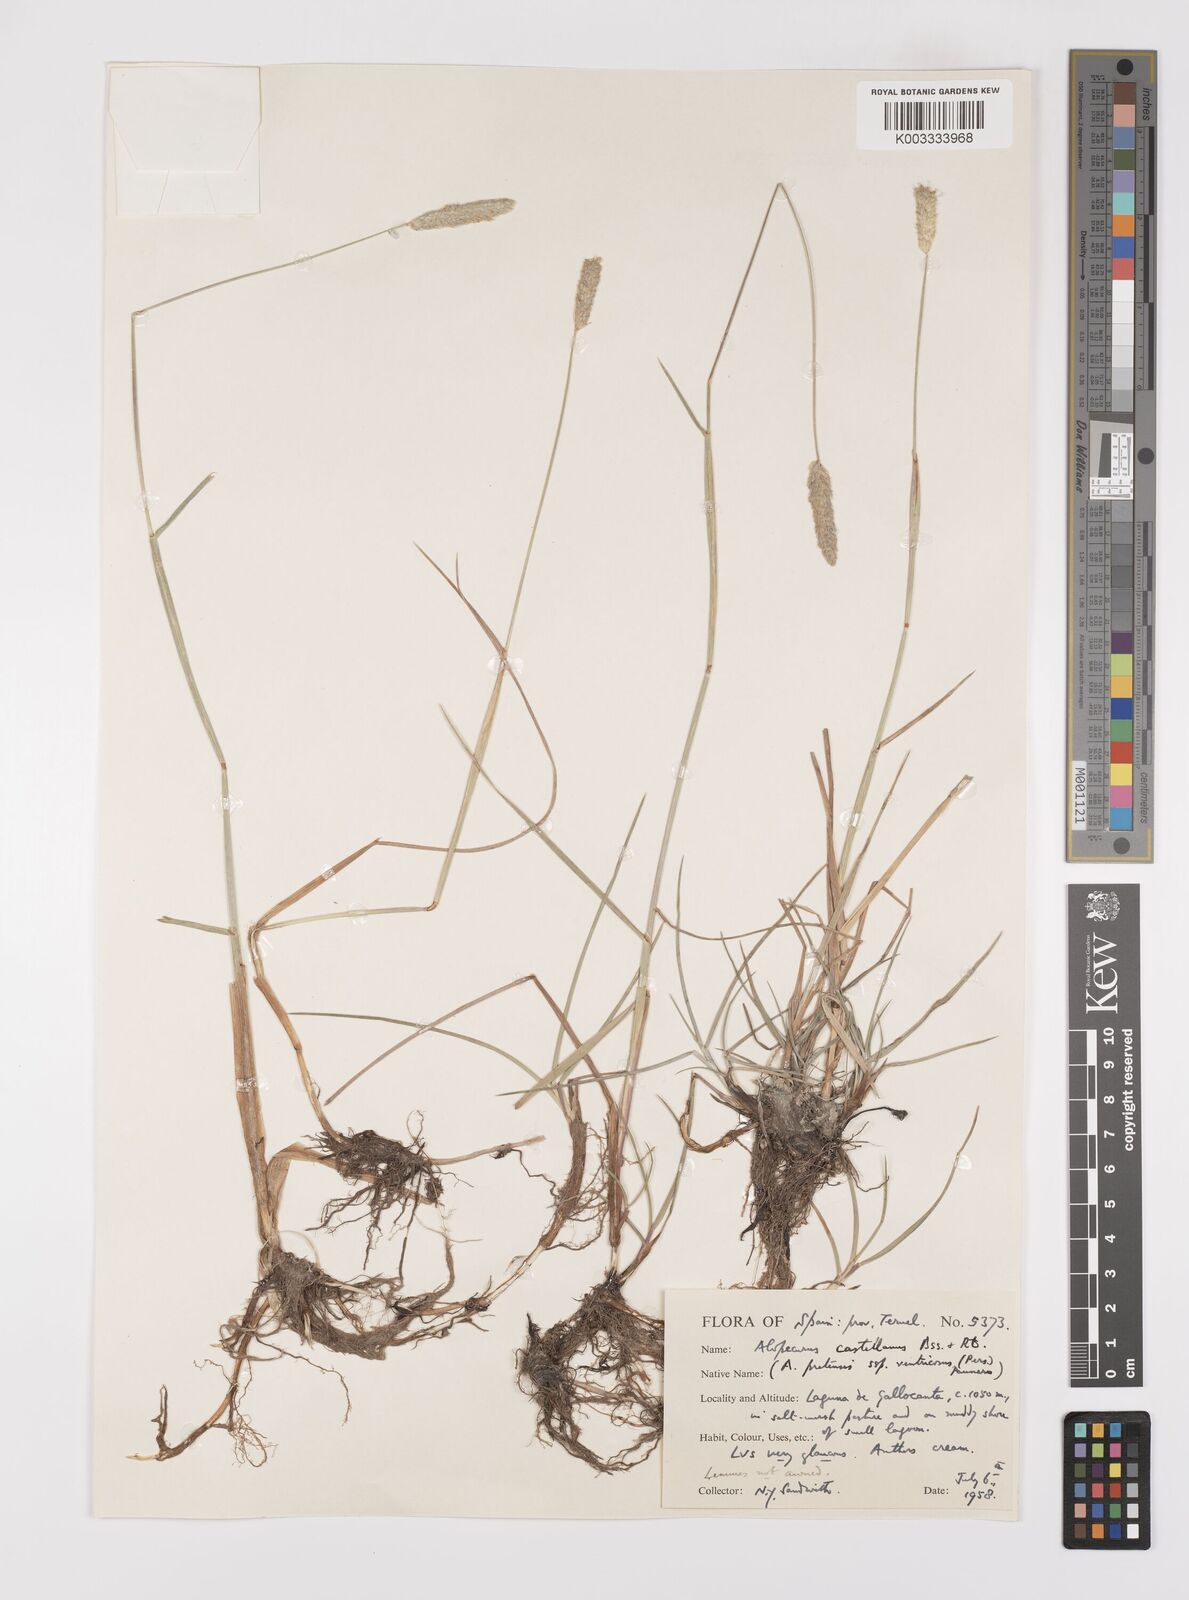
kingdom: Plantae
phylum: Tracheophyta
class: Liliopsida
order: Poales
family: Poaceae
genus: Alopecurus
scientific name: Alopecurus arundinaceus
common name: Creeping meadow foxtail
